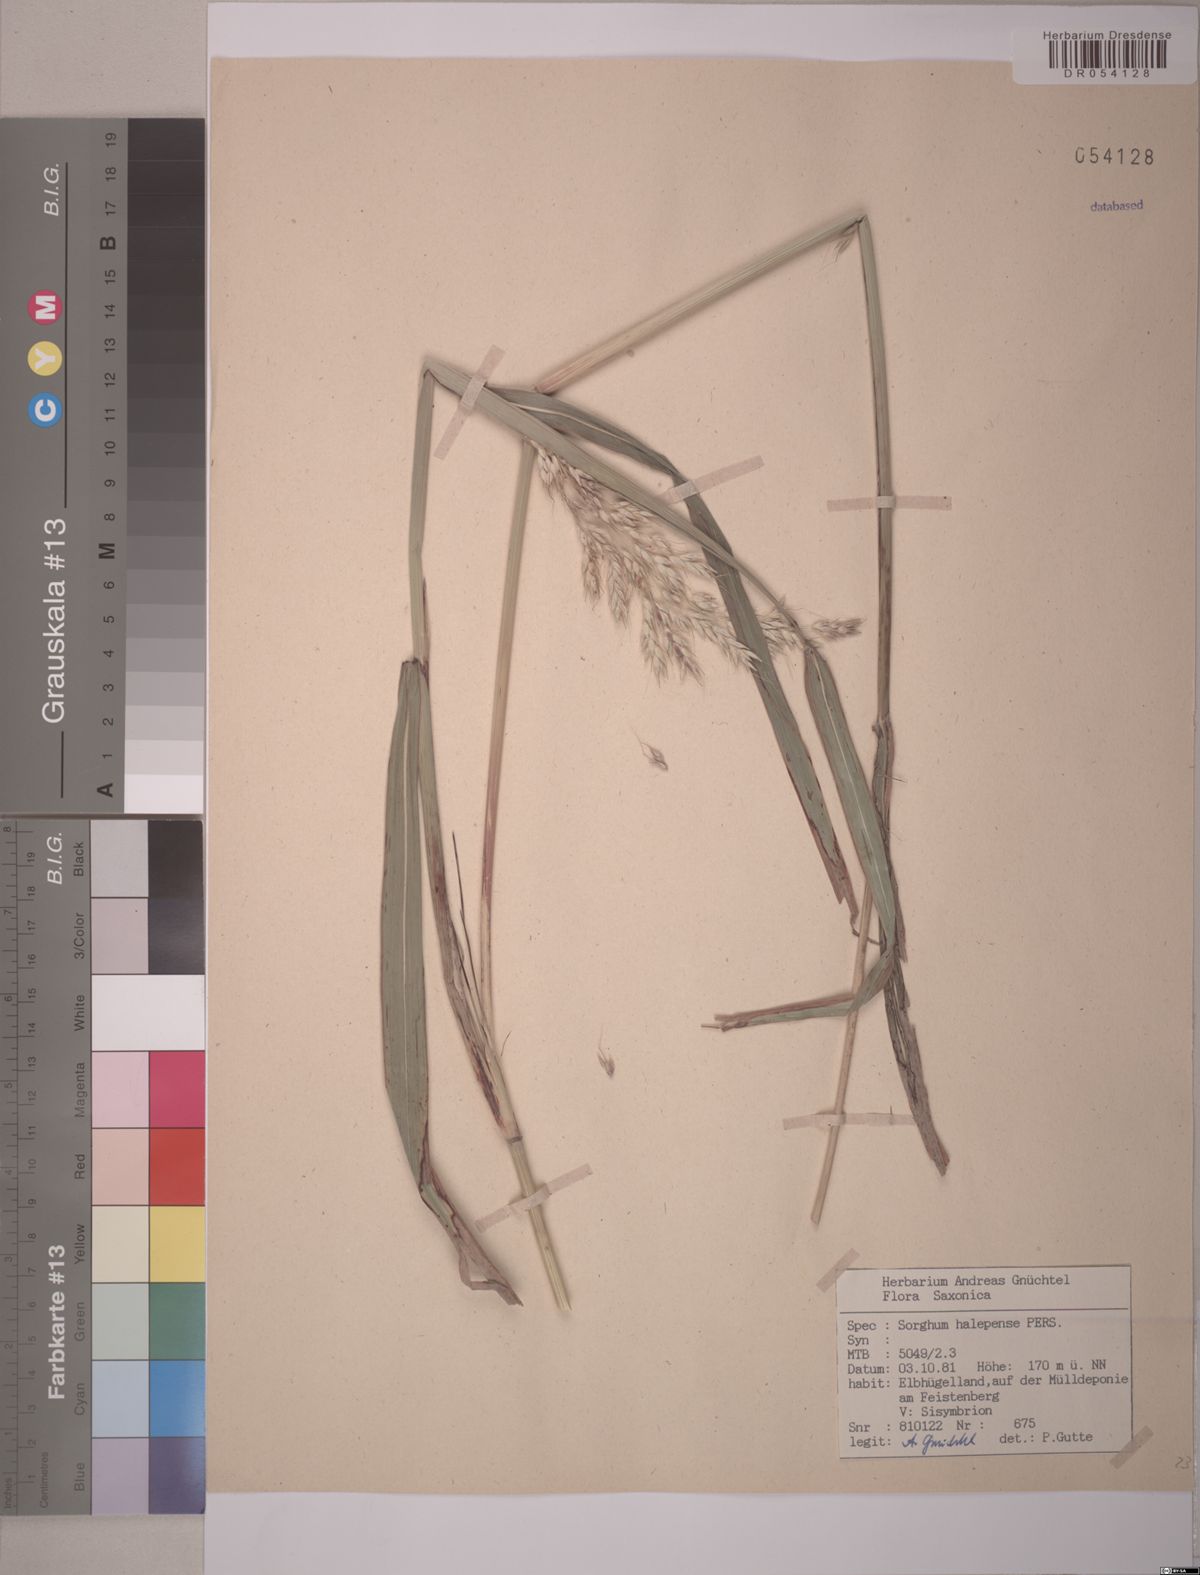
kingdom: Plantae
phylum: Tracheophyta
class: Liliopsida
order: Poales
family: Poaceae
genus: Sorghum
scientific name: Sorghum halepense
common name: Johnson-grass
